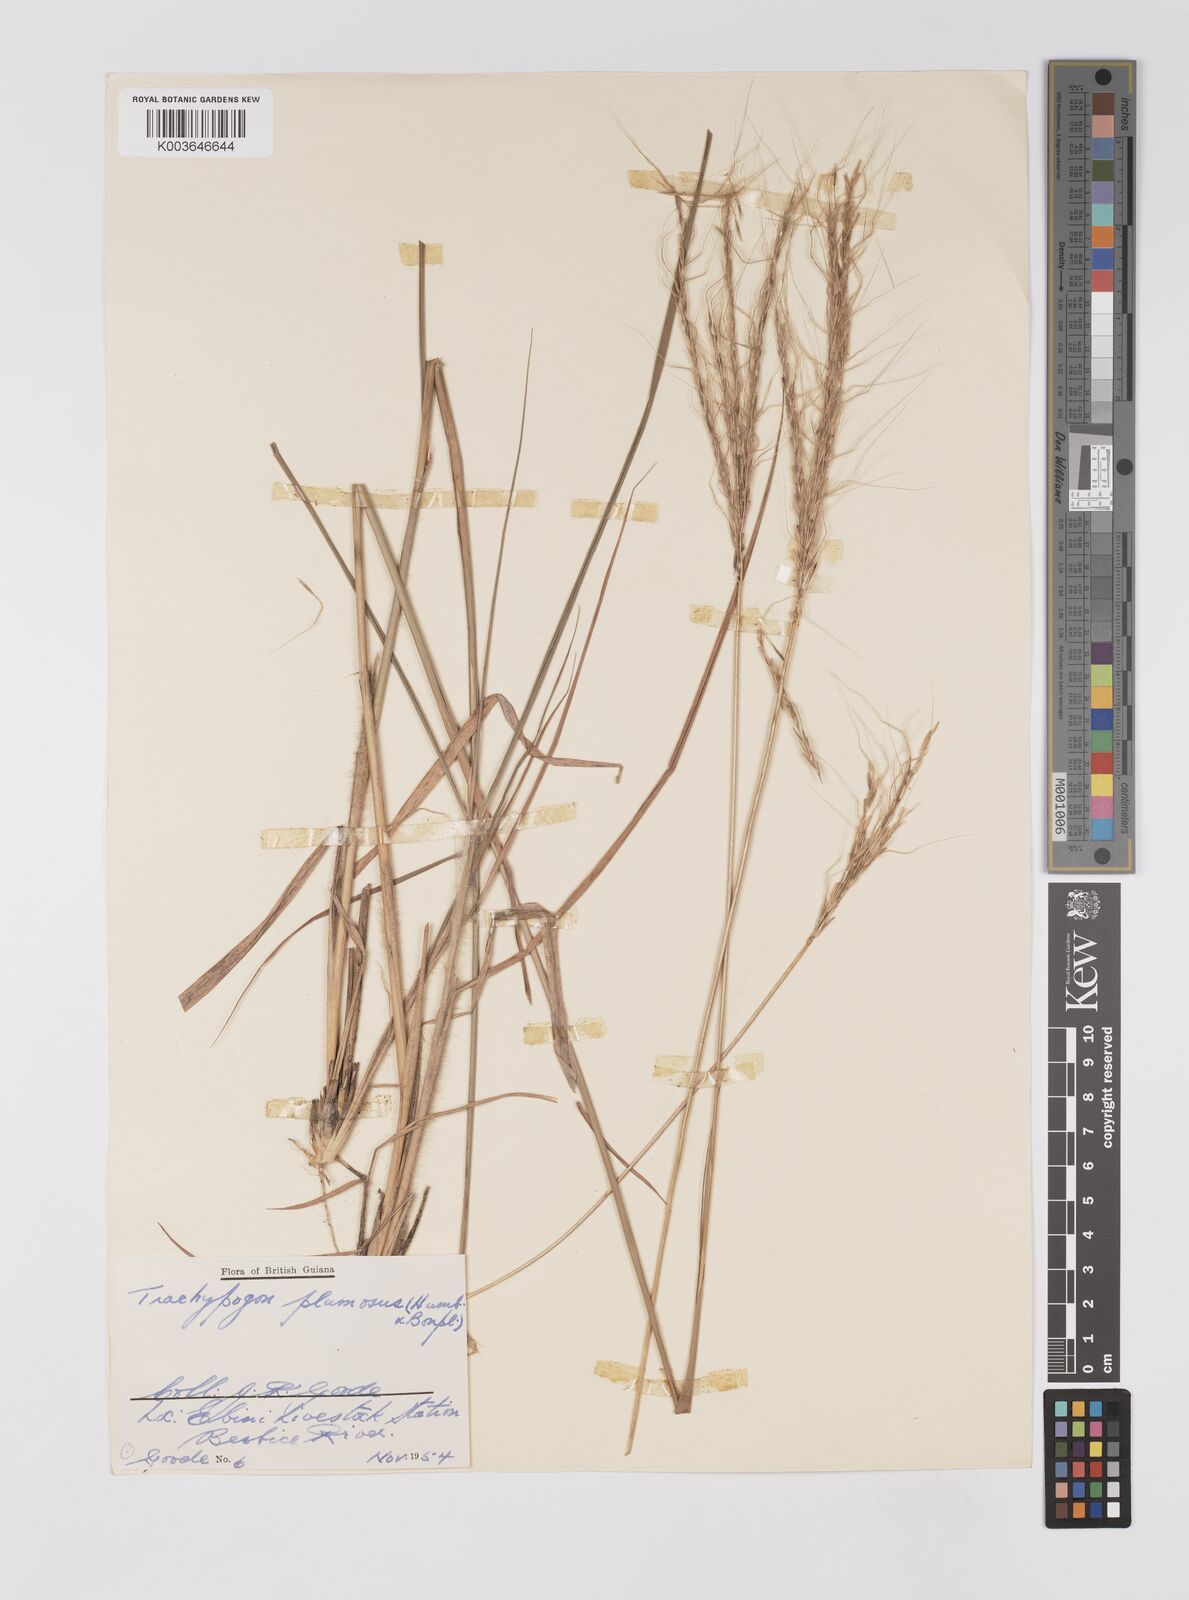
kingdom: Plantae
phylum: Tracheophyta
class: Liliopsida
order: Poales
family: Poaceae
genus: Trachypogon
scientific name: Trachypogon spicatus
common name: Crinkle-awn
